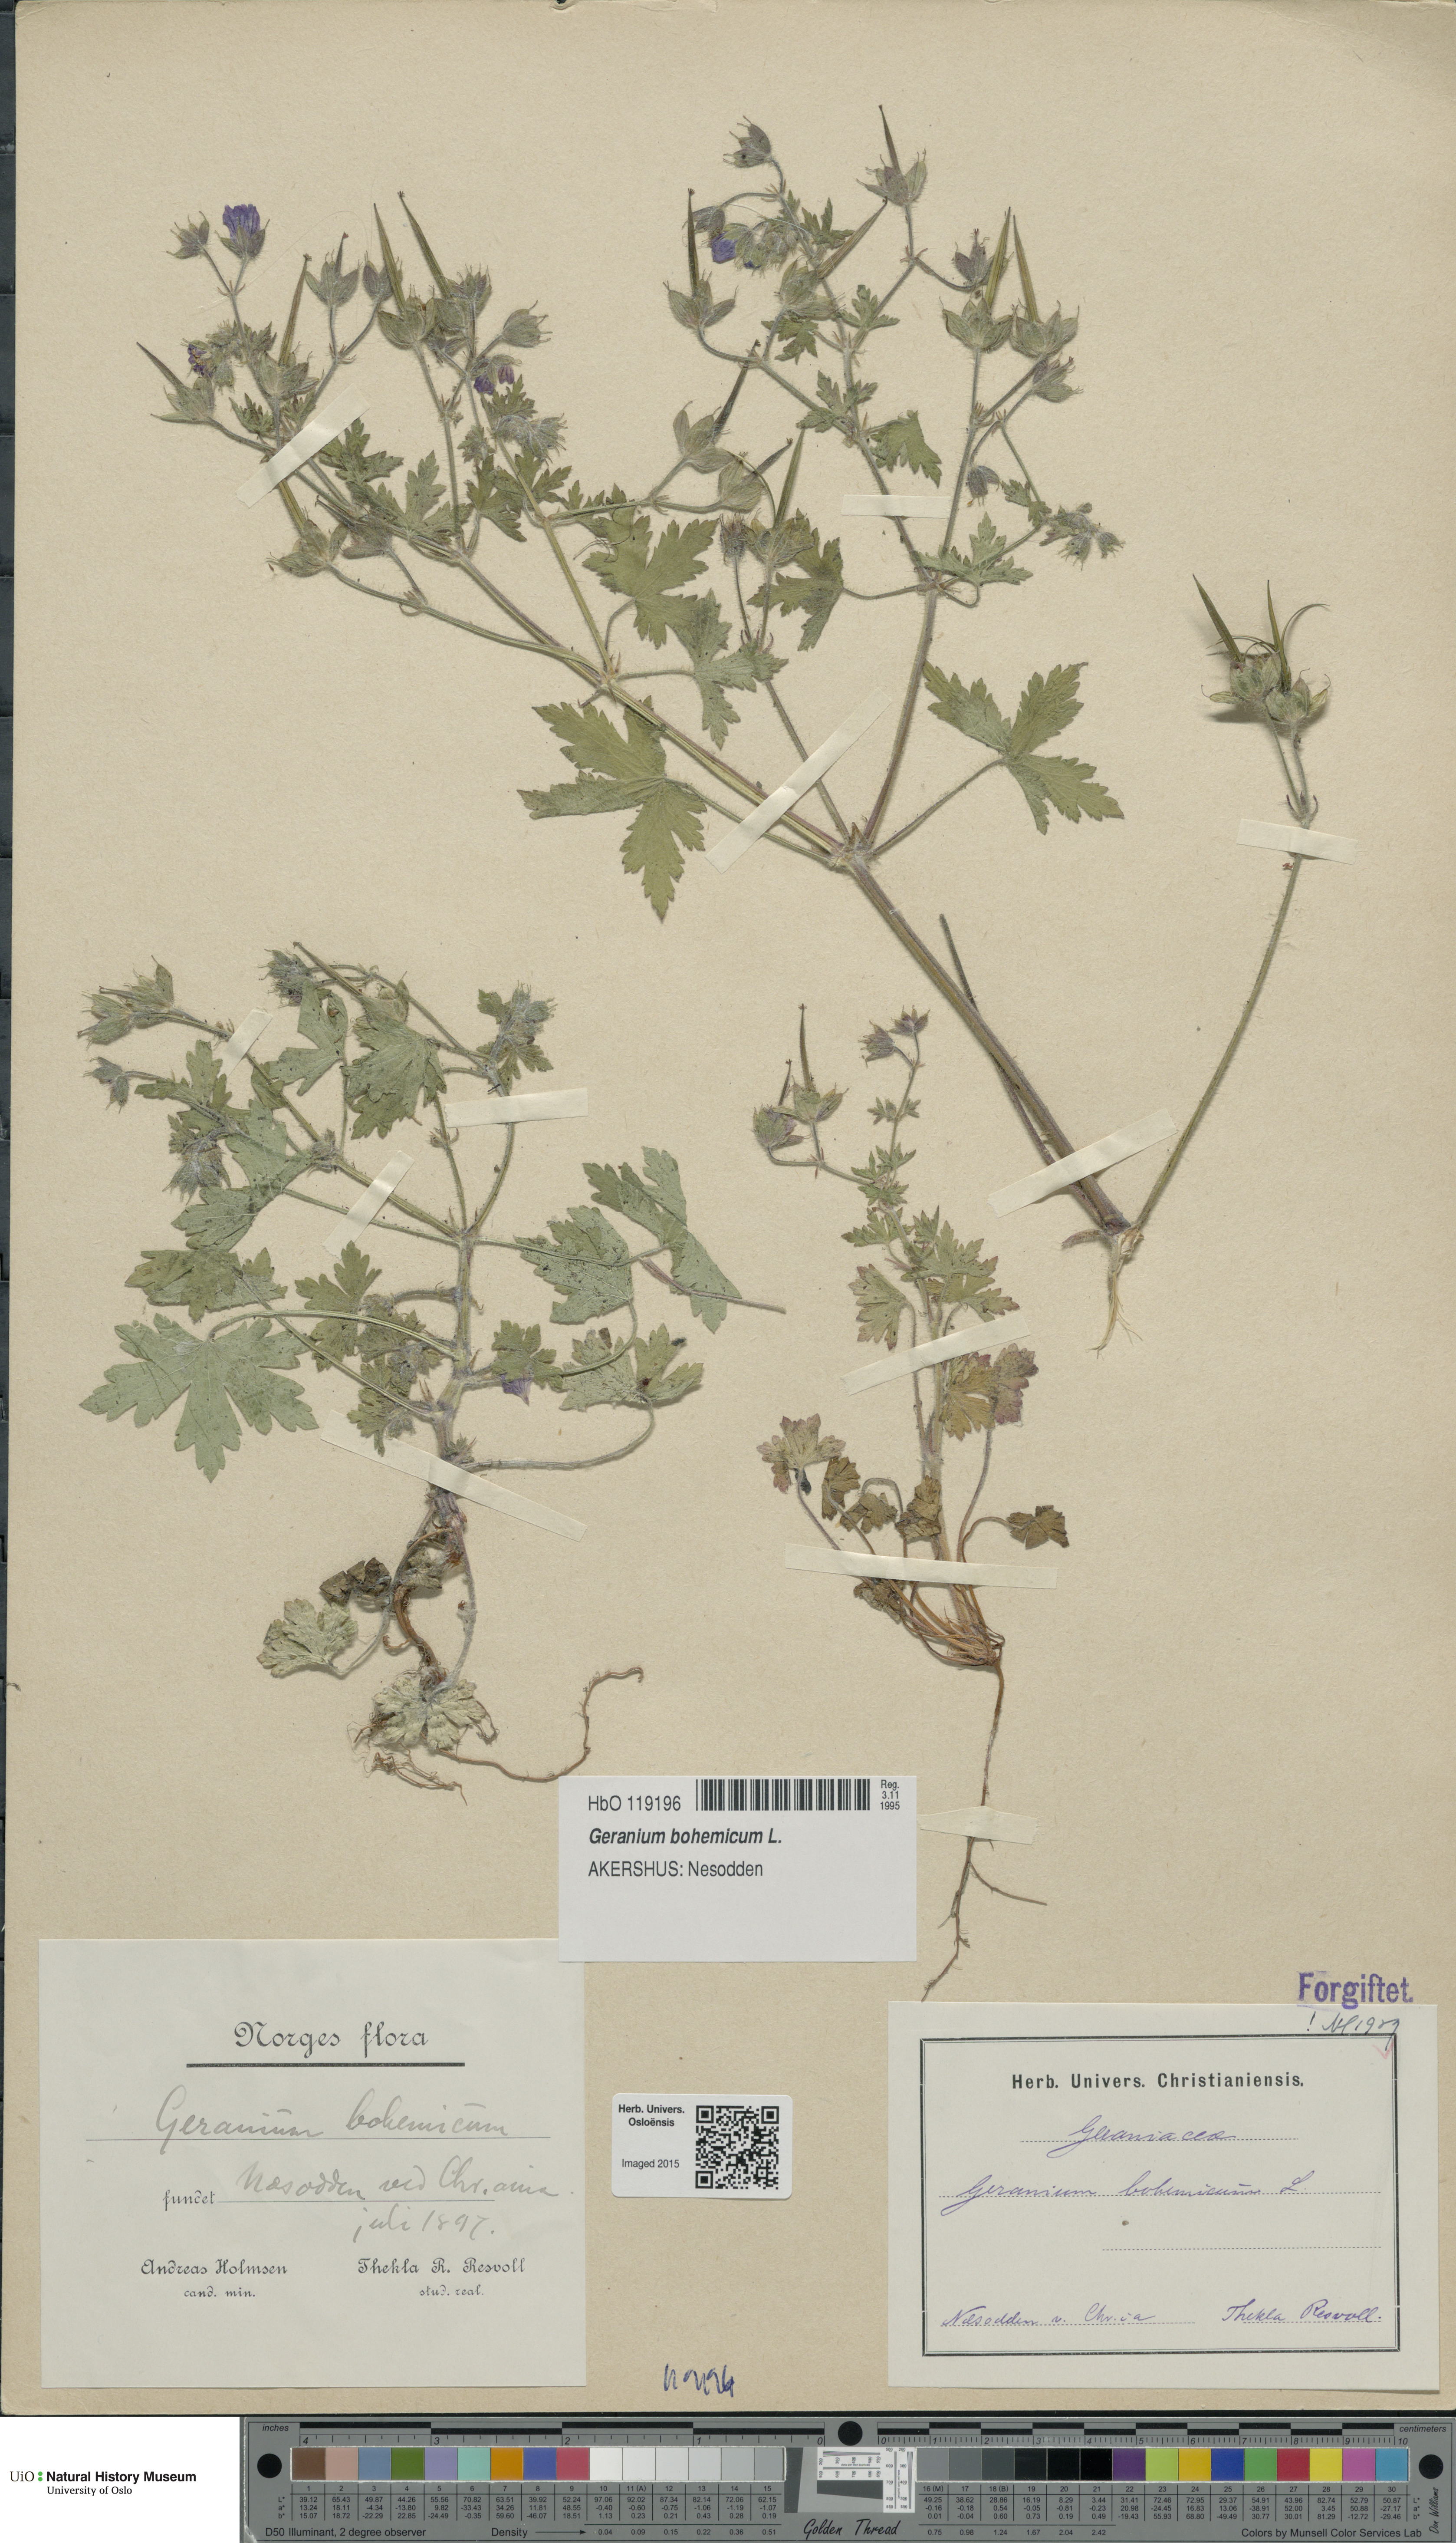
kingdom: Plantae
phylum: Tracheophyta
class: Magnoliopsida
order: Geraniales
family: Geraniaceae
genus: Geranium
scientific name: Geranium bohemicum
